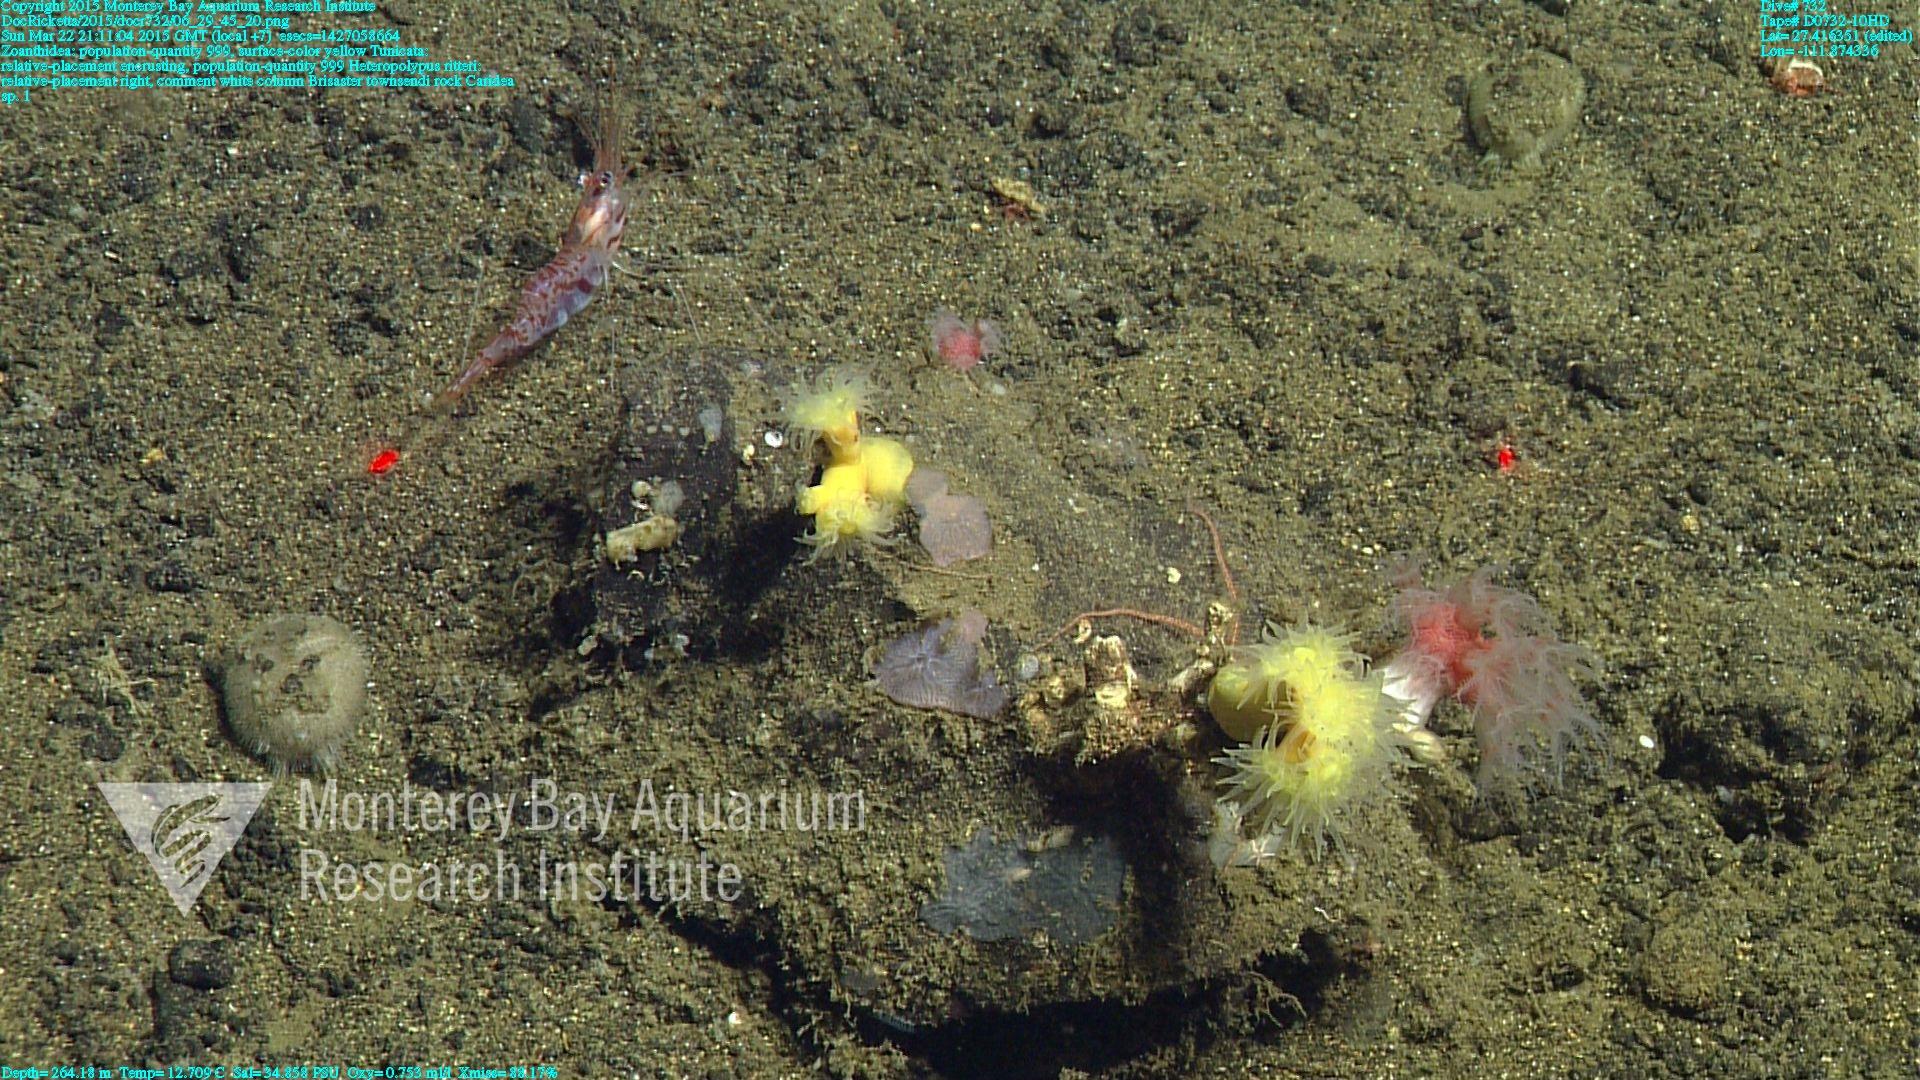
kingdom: Animalia
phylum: Cnidaria
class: Anthozoa
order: Scleralcyonacea
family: Coralliidae
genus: Heteropolypus
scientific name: Heteropolypus ritteri
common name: Ritter's soft coral
